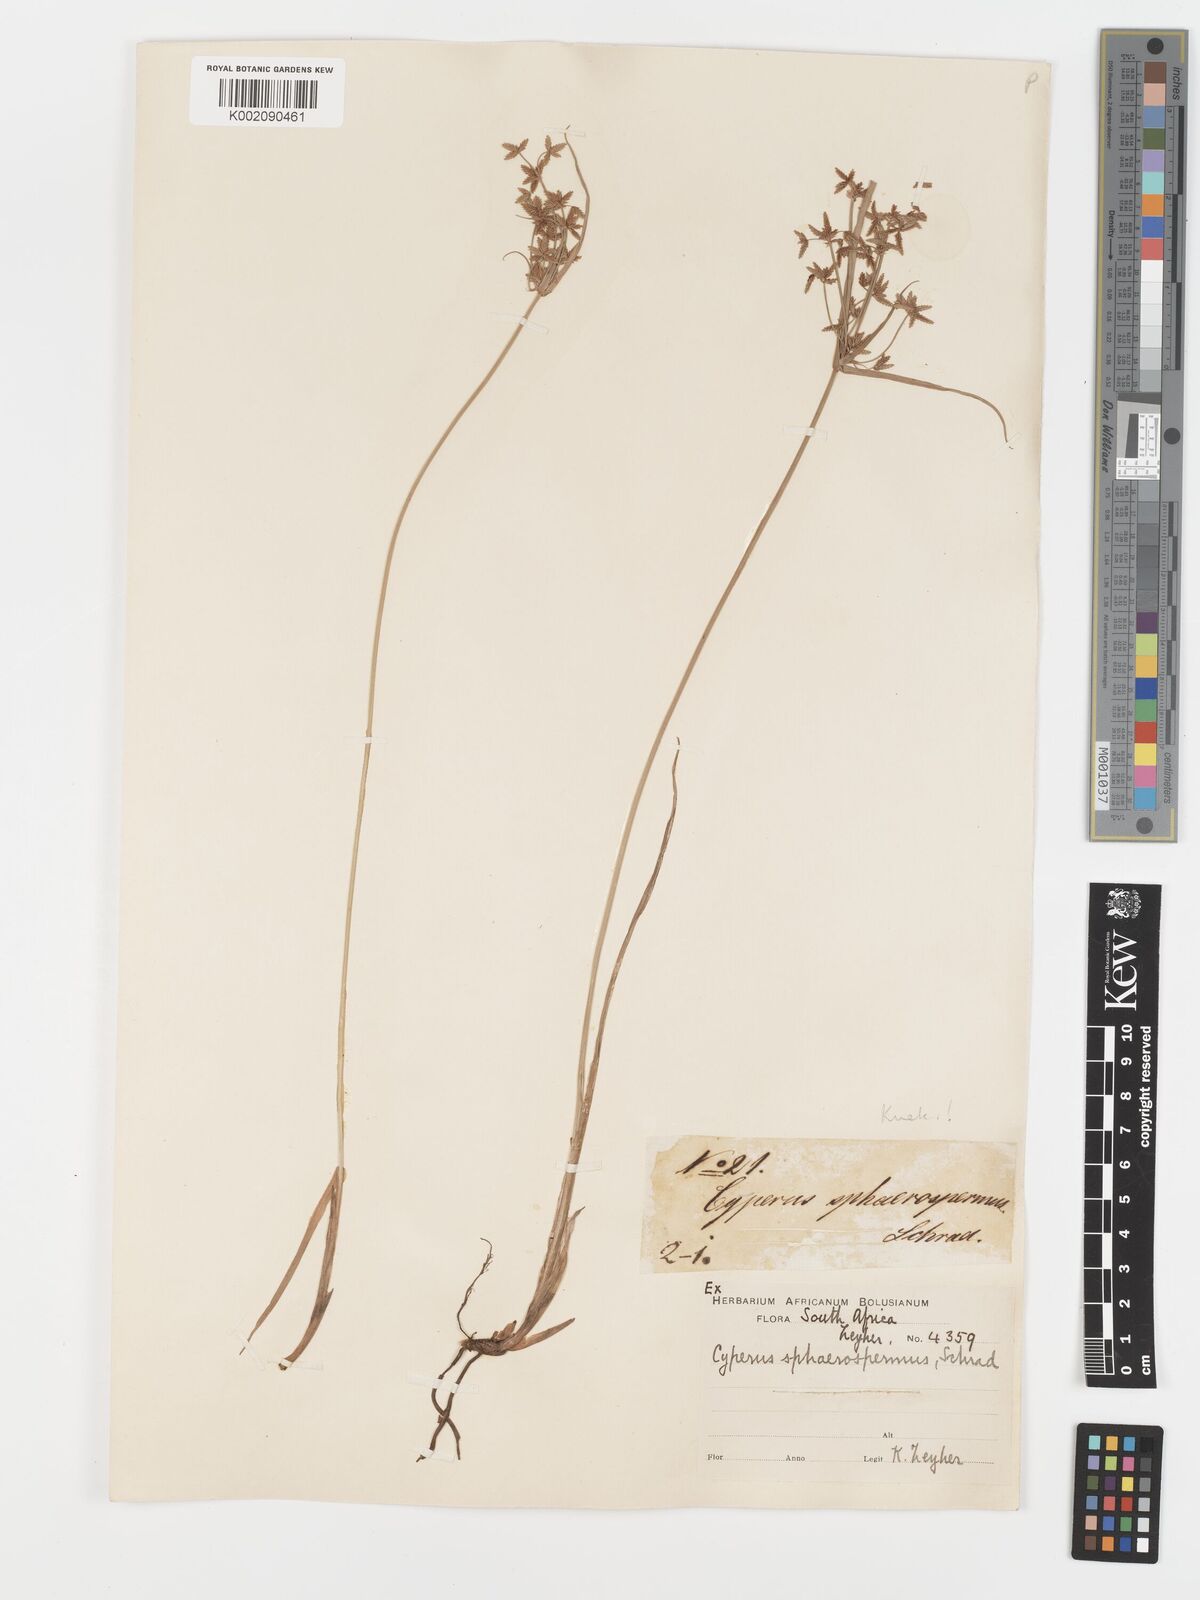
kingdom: Plantae
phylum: Tracheophyta
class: Liliopsida
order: Poales
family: Cyperaceae
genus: Cyperus
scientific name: Cyperus sphaerospermus
